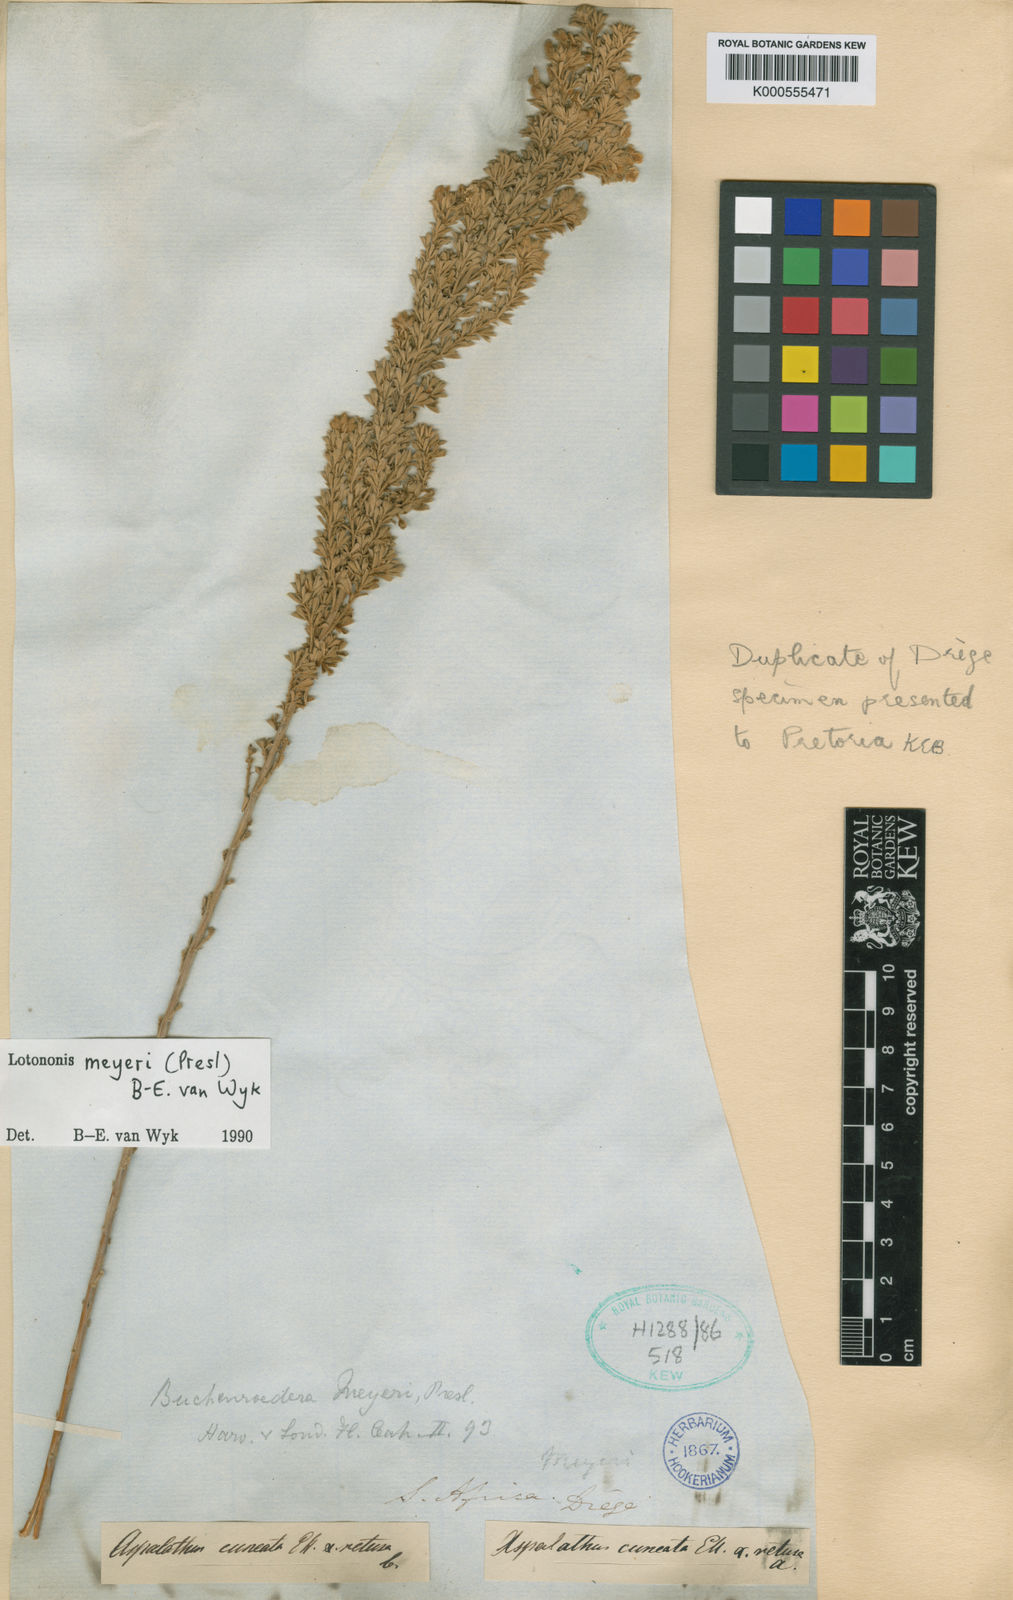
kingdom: Plantae
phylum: Tracheophyta
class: Magnoliopsida
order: Fabales
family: Fabaceae
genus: Lotononis
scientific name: Lotononis meyeri
